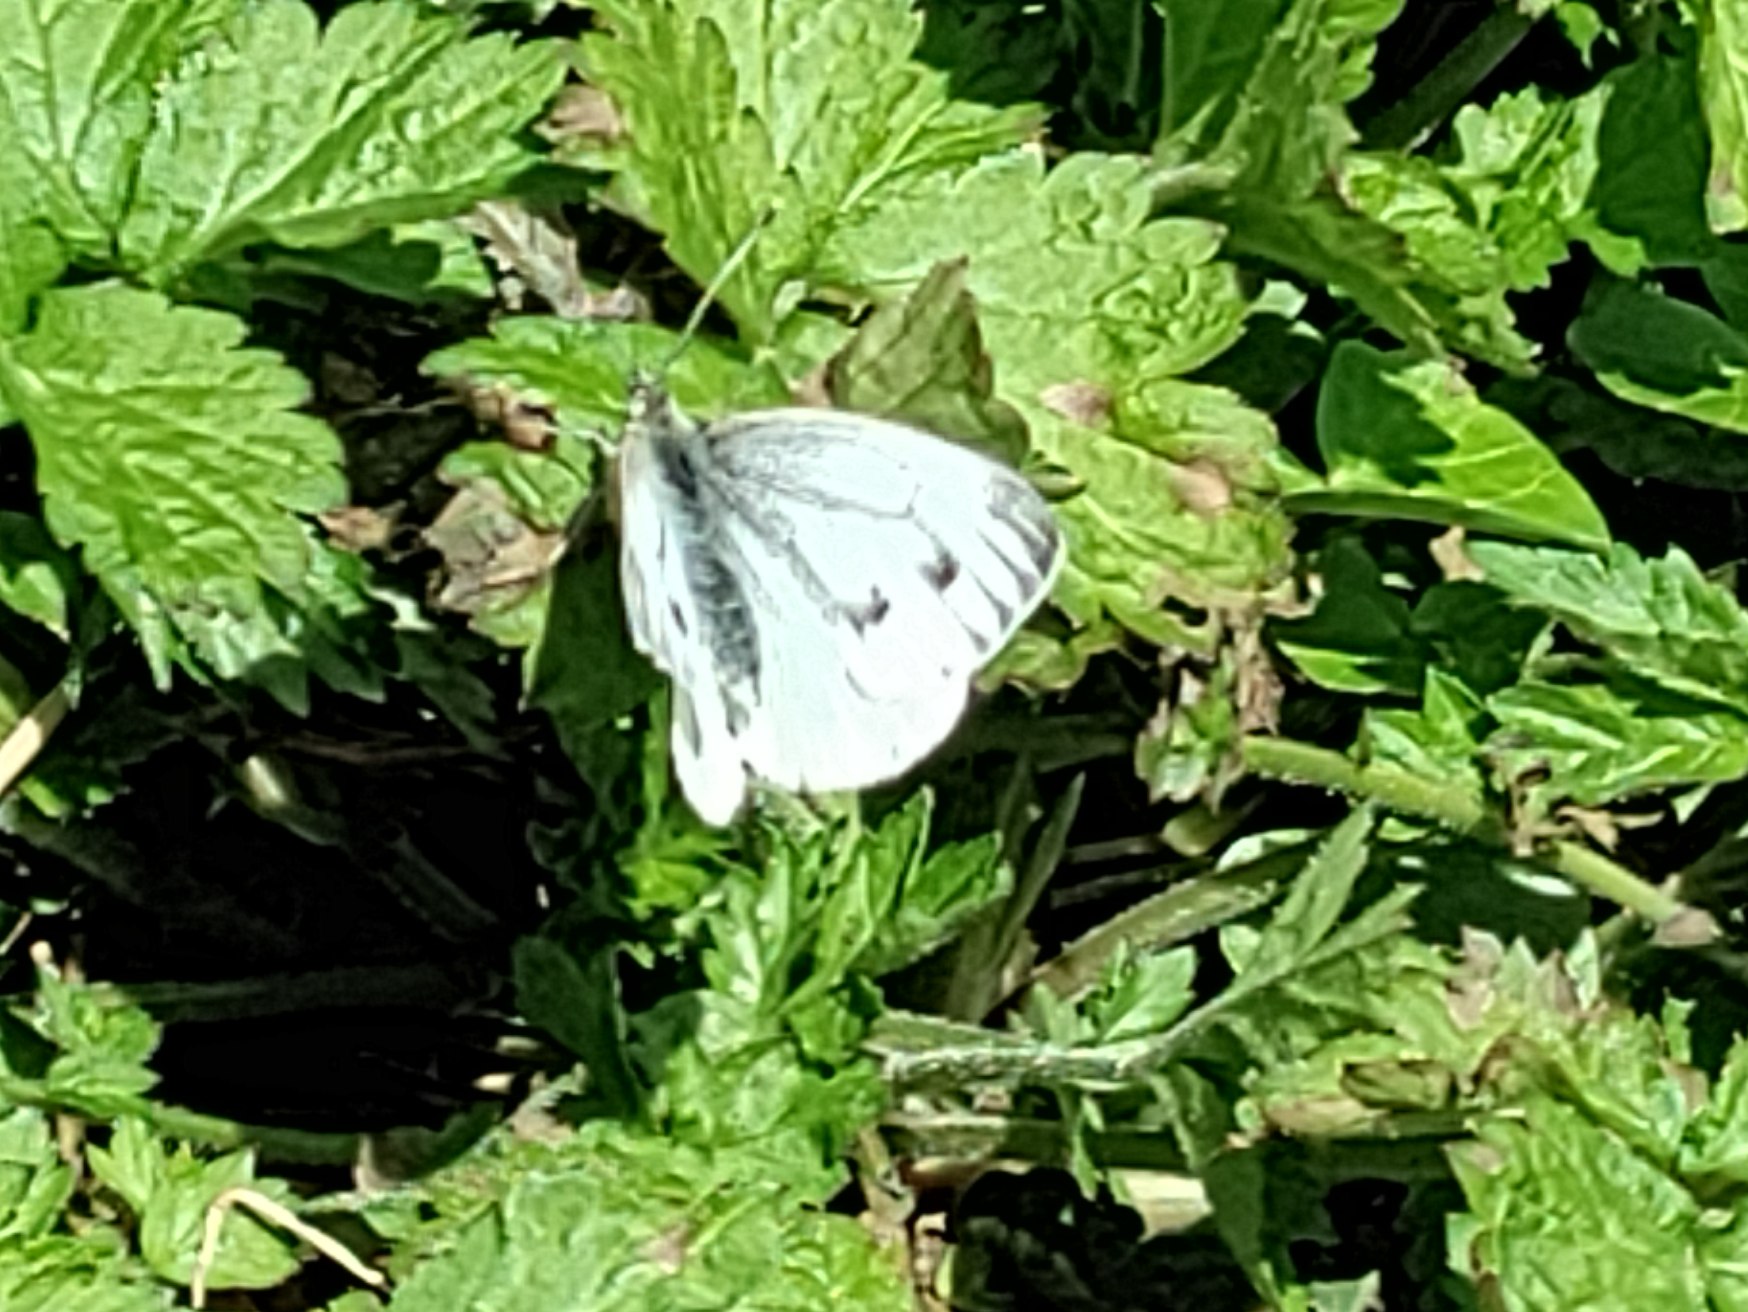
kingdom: Animalia
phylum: Arthropoda
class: Insecta
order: Lepidoptera
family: Pieridae
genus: Pieris
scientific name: Pieris napi
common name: Grønåret kålsommerfugl
